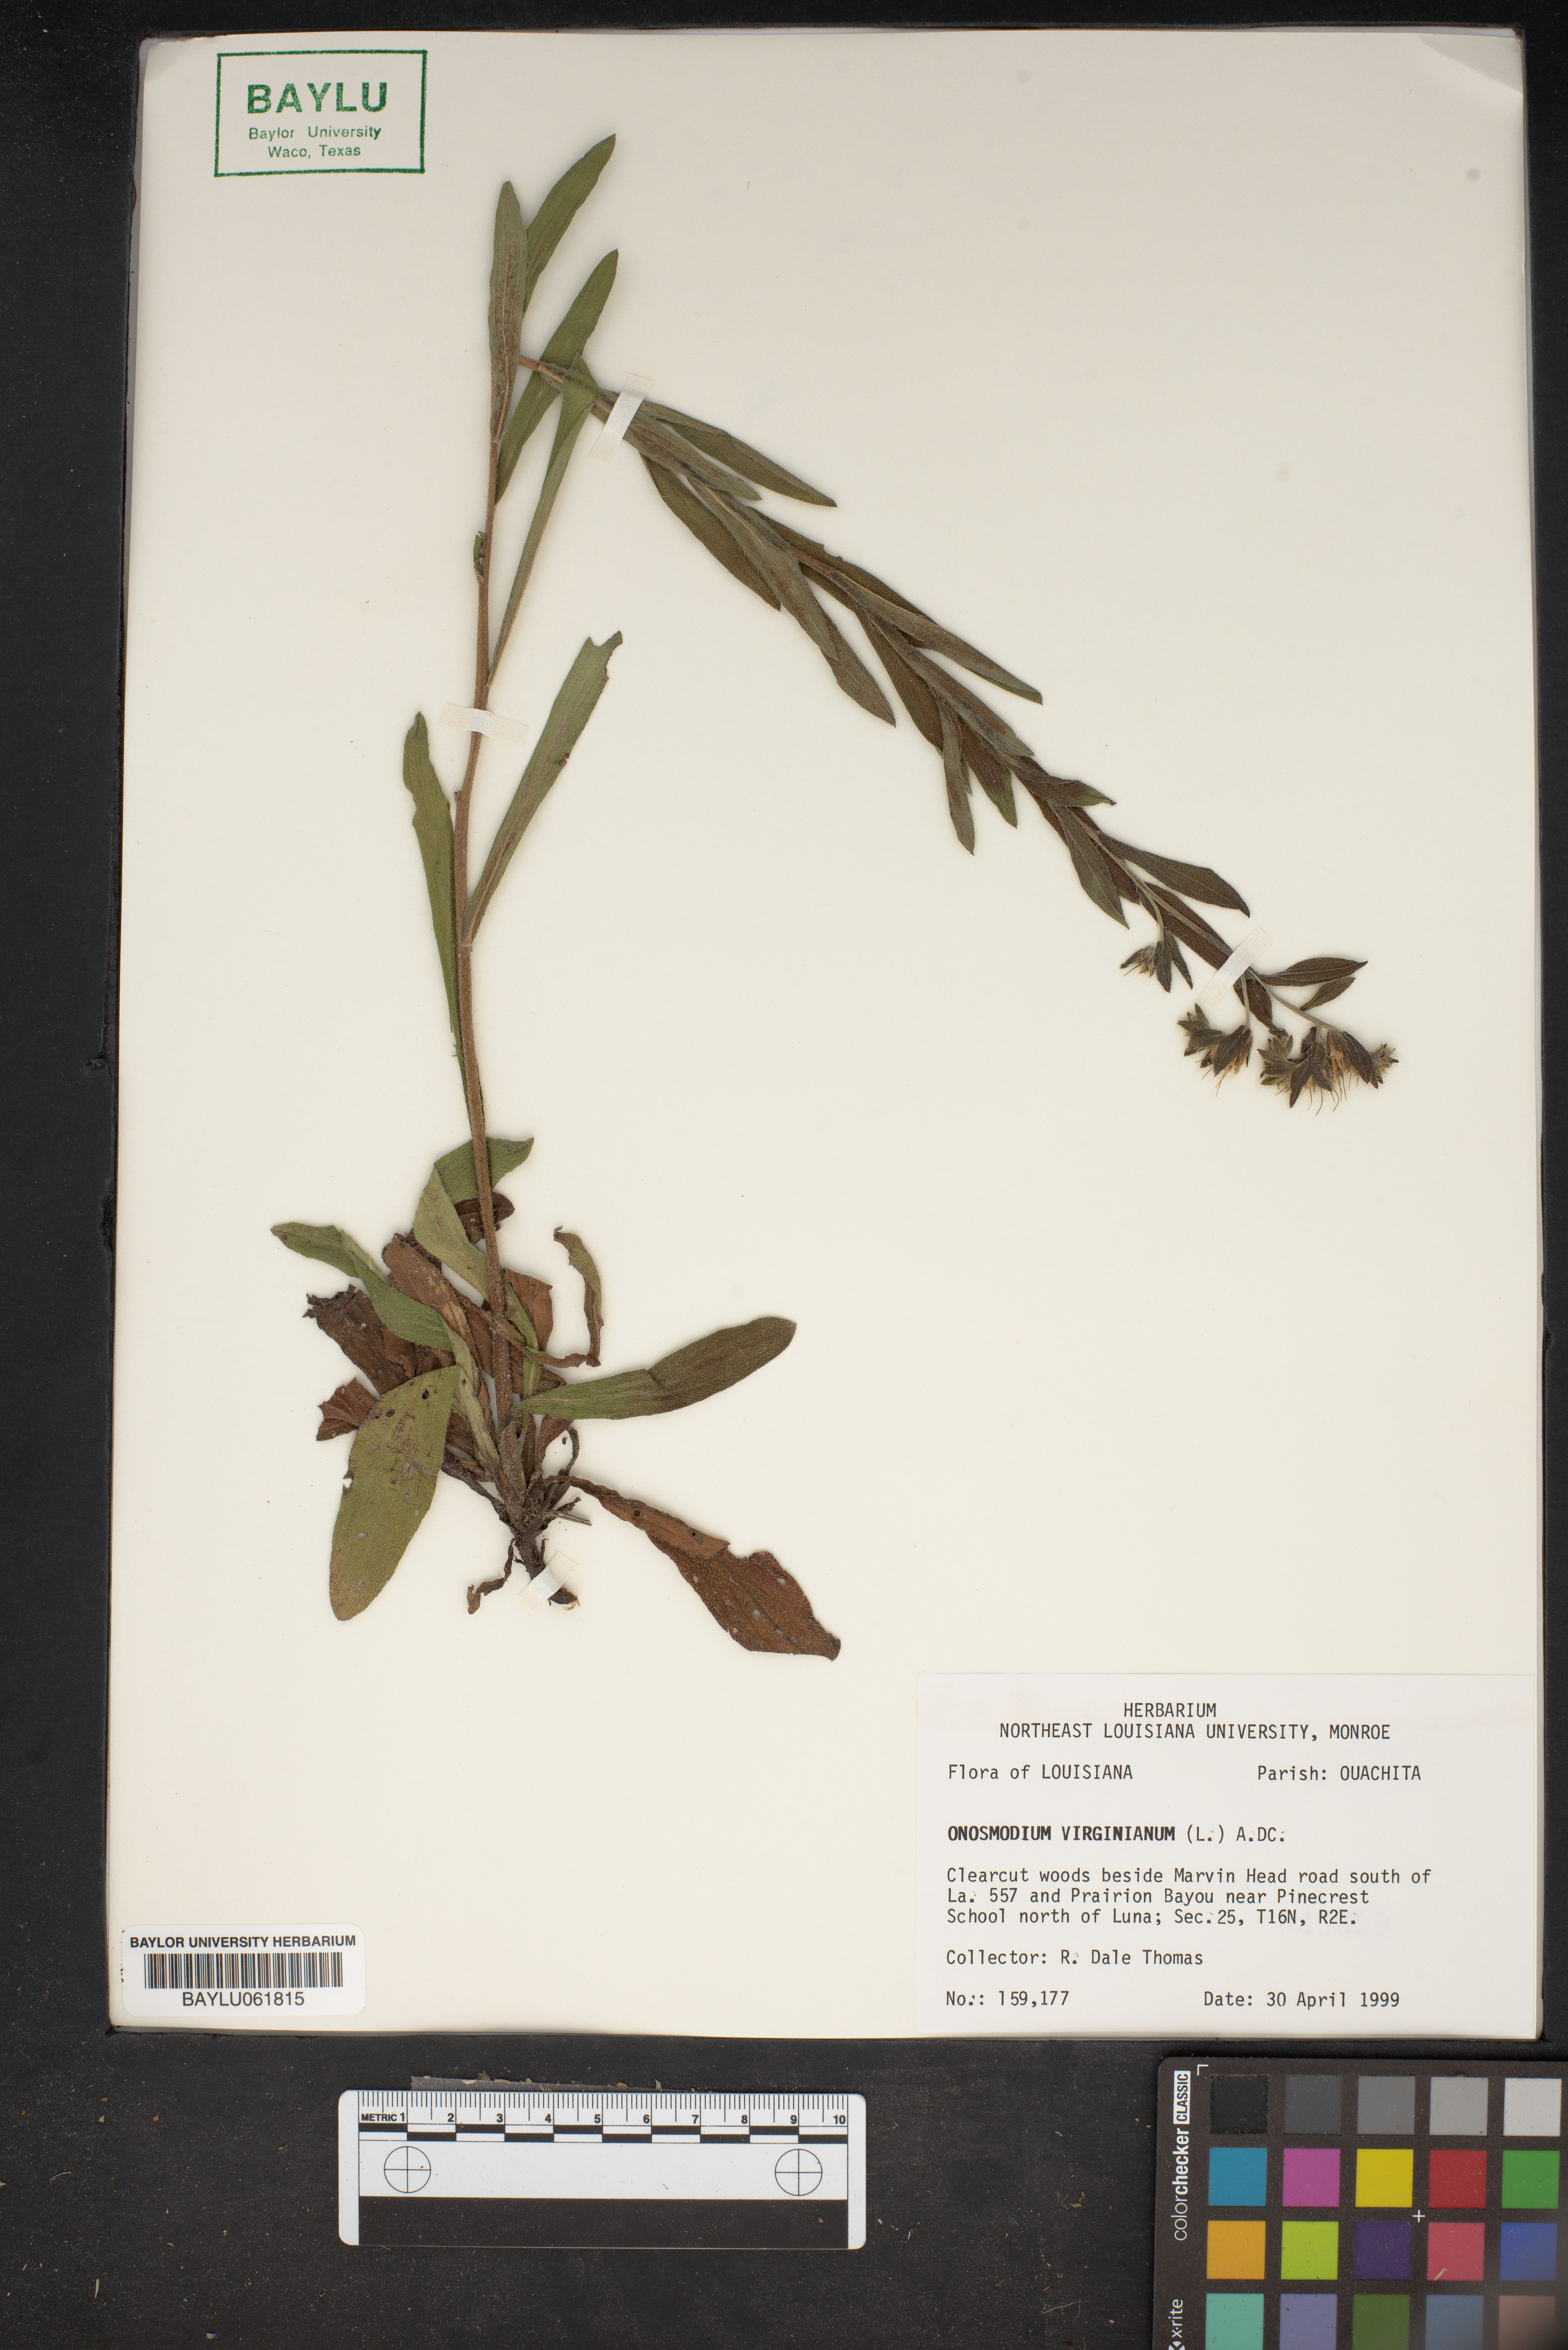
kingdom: Plantae
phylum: Tracheophyta
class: Magnoliopsida
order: Boraginales
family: Boraginaceae
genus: Lithospermum
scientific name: Lithospermum virginianum
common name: Eastern false gromwell
